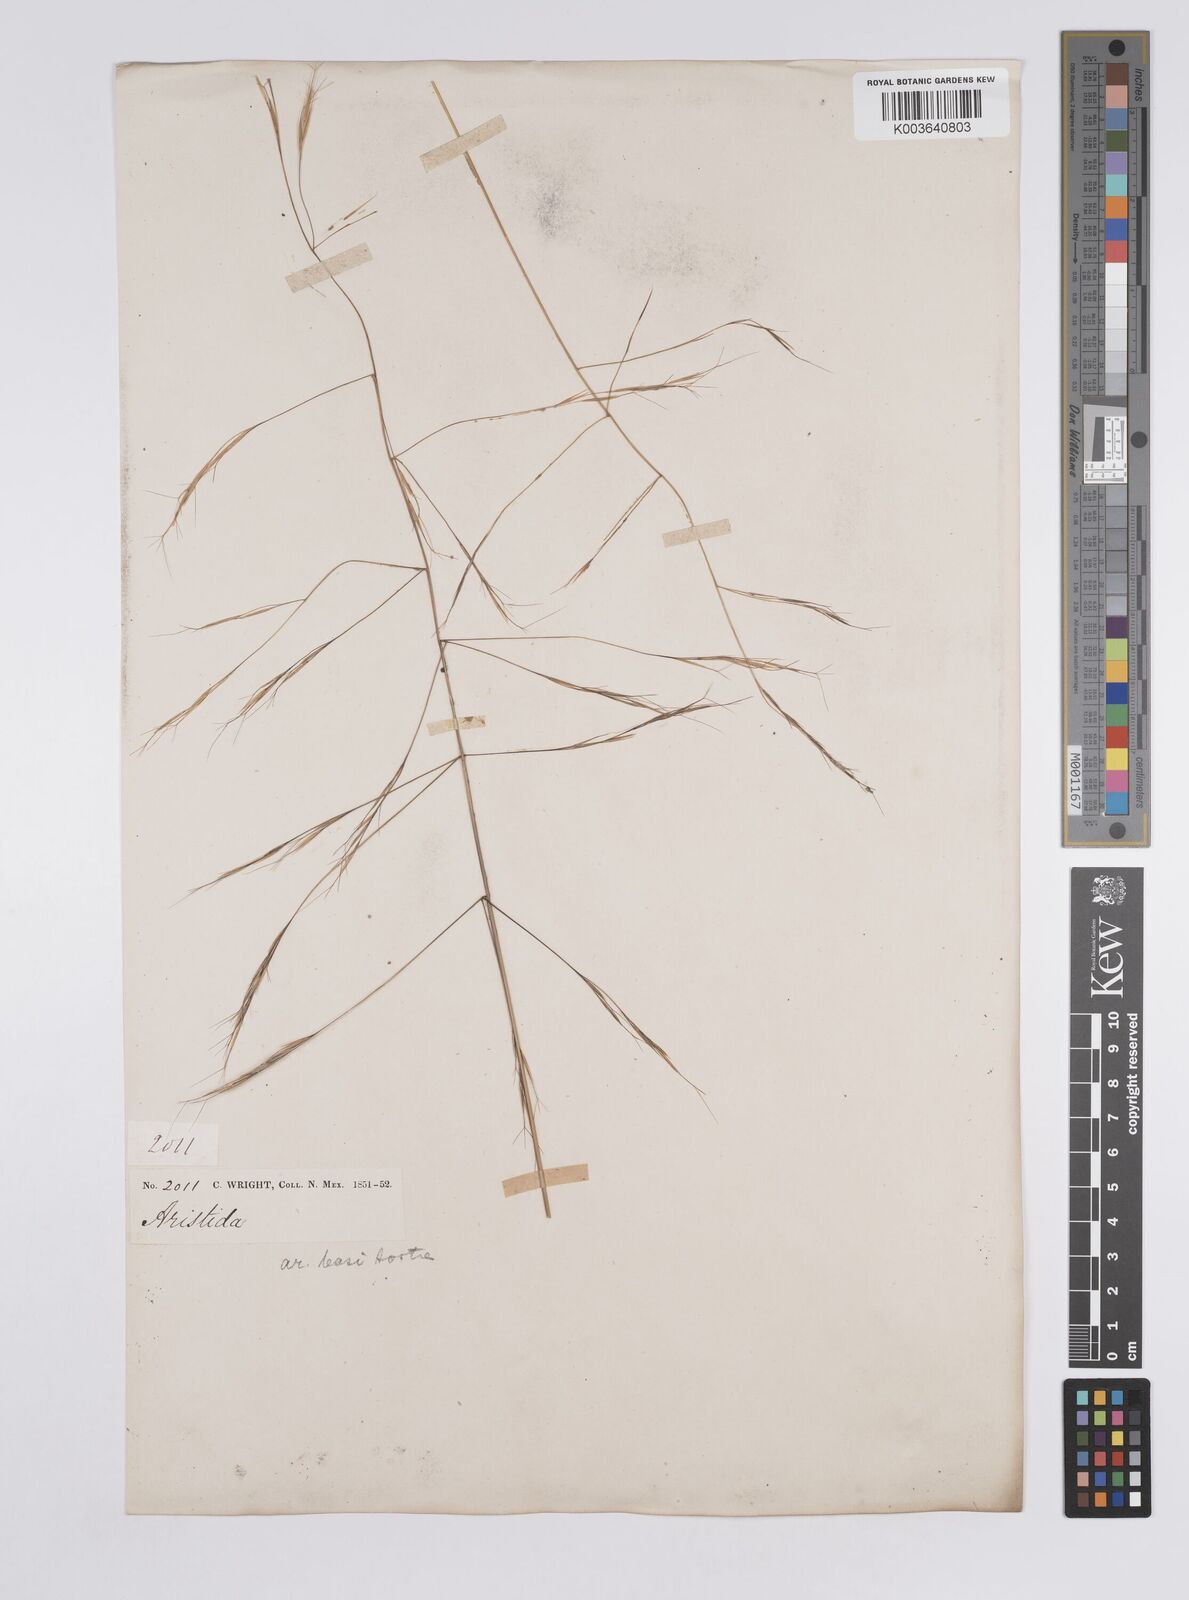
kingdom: Plantae
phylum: Tracheophyta
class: Liliopsida
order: Poales
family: Poaceae
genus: Aristida
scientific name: Aristida laxa
